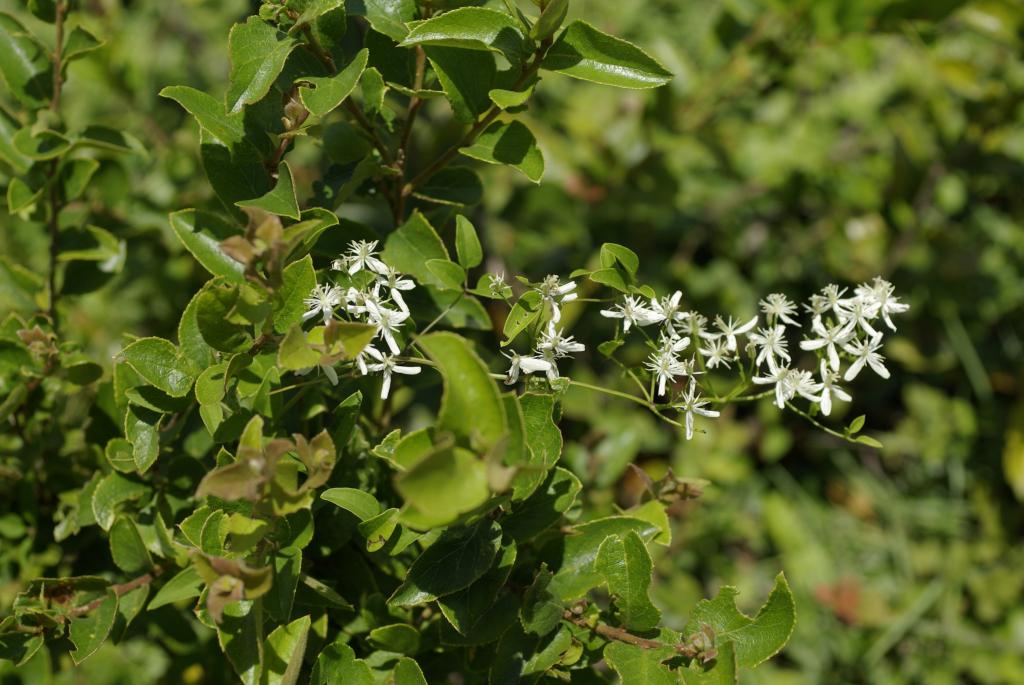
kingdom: Plantae
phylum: Tracheophyta
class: Magnoliopsida
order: Ranunculales
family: Ranunculaceae
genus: Clematis
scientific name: Clematis chinensis
